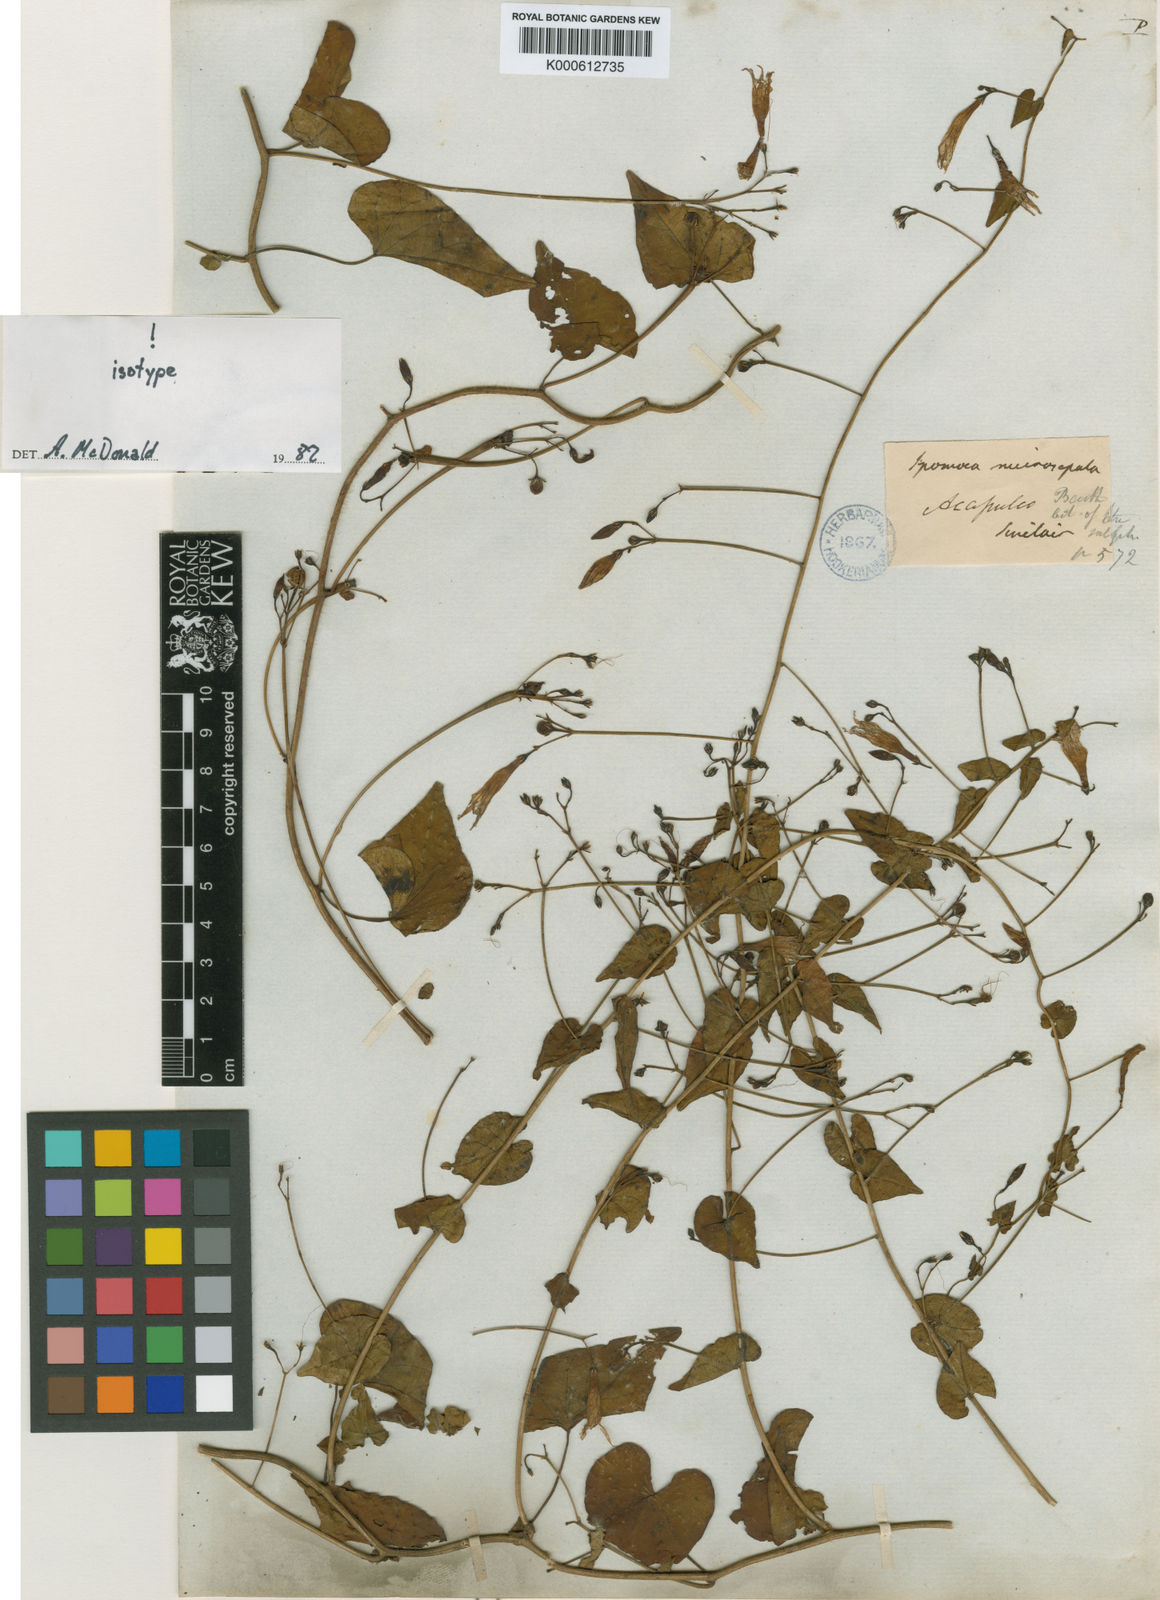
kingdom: Plantae
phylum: Tracheophyta
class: Magnoliopsida
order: Solanales
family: Convolvulaceae
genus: Ipomoea
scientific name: Ipomoea microsepala
